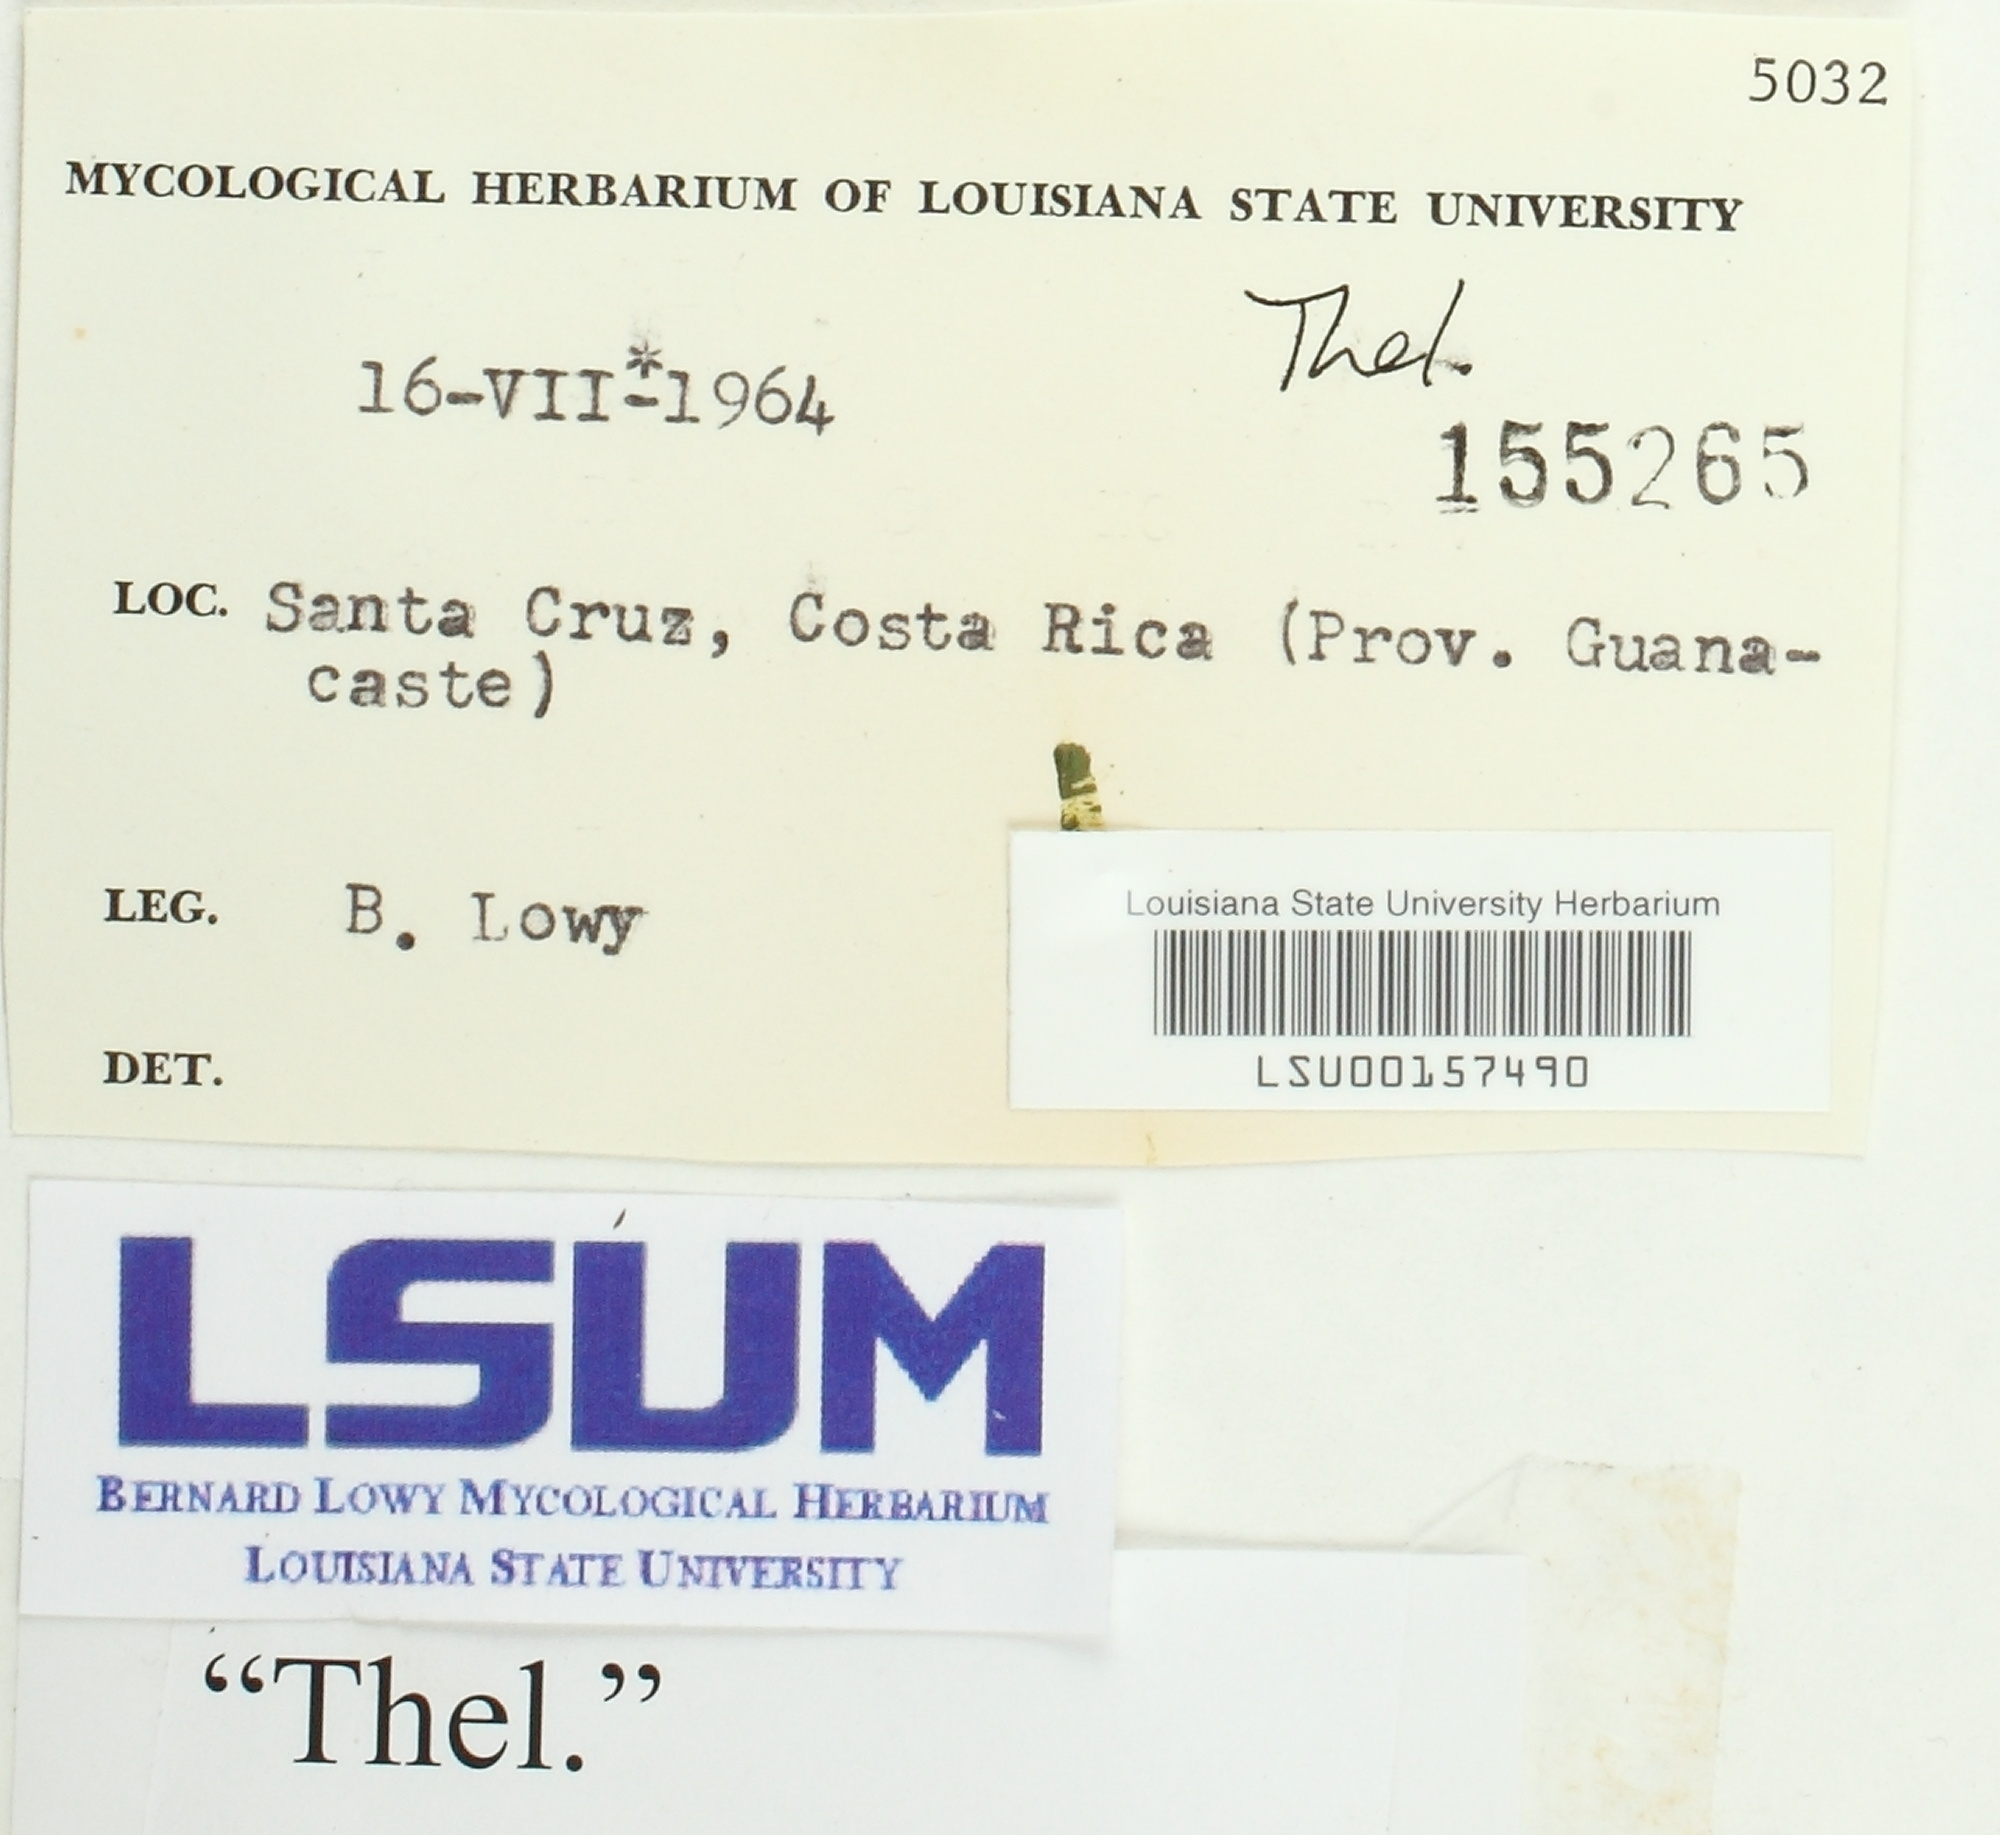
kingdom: Fungi
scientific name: Fungi
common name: Fungi
